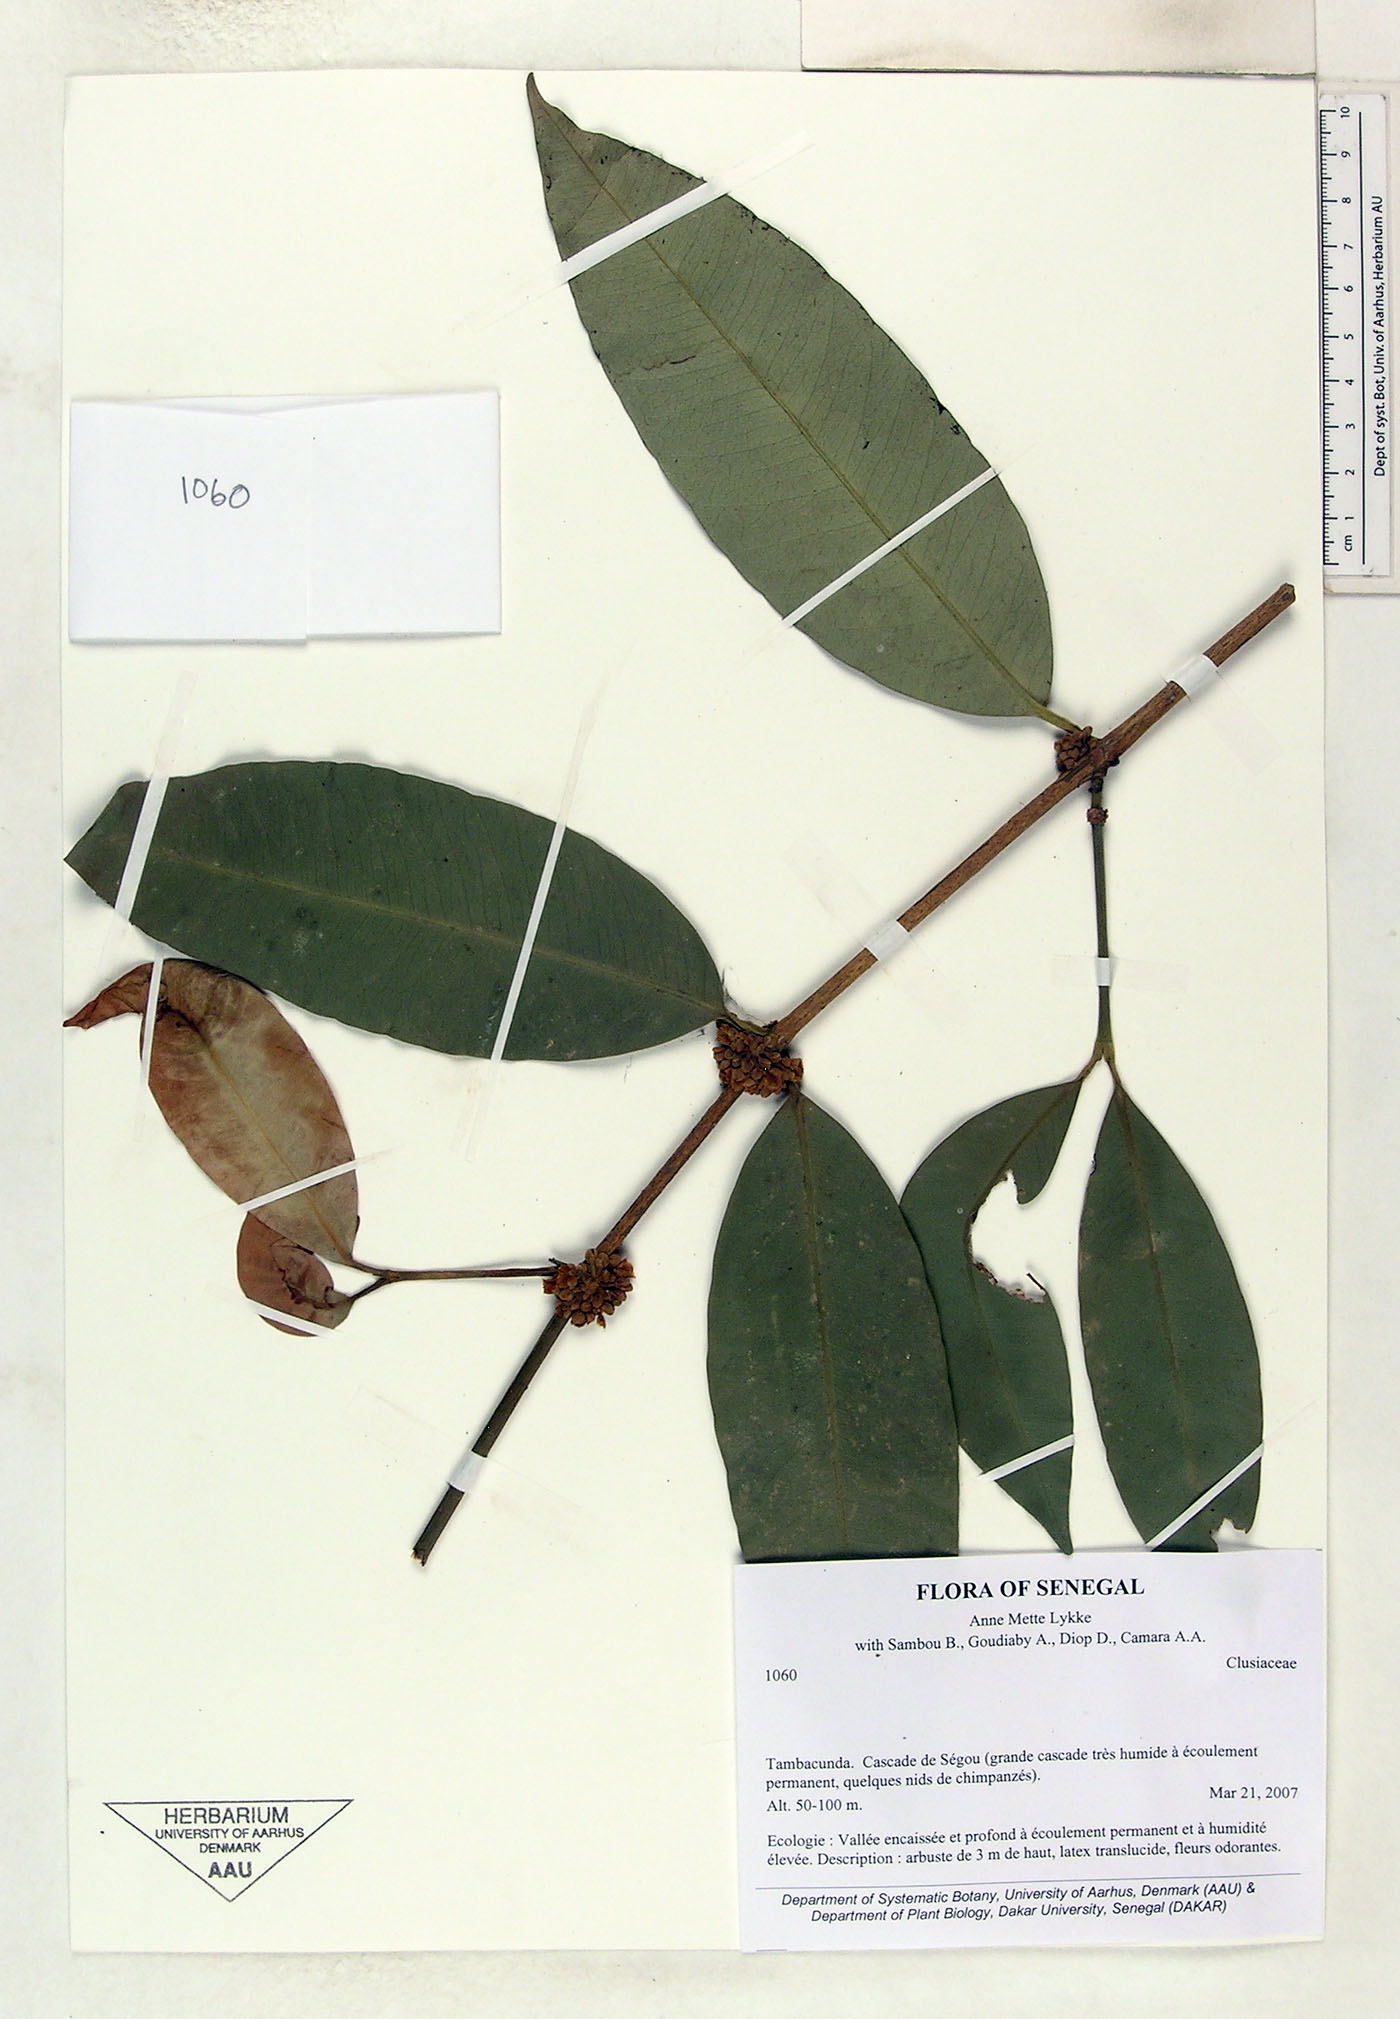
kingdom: Plantae
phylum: Tracheophyta
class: Magnoliopsida
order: Malpighiales
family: Clusiaceae
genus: Garcinia
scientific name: Garcinia ovalifolia
